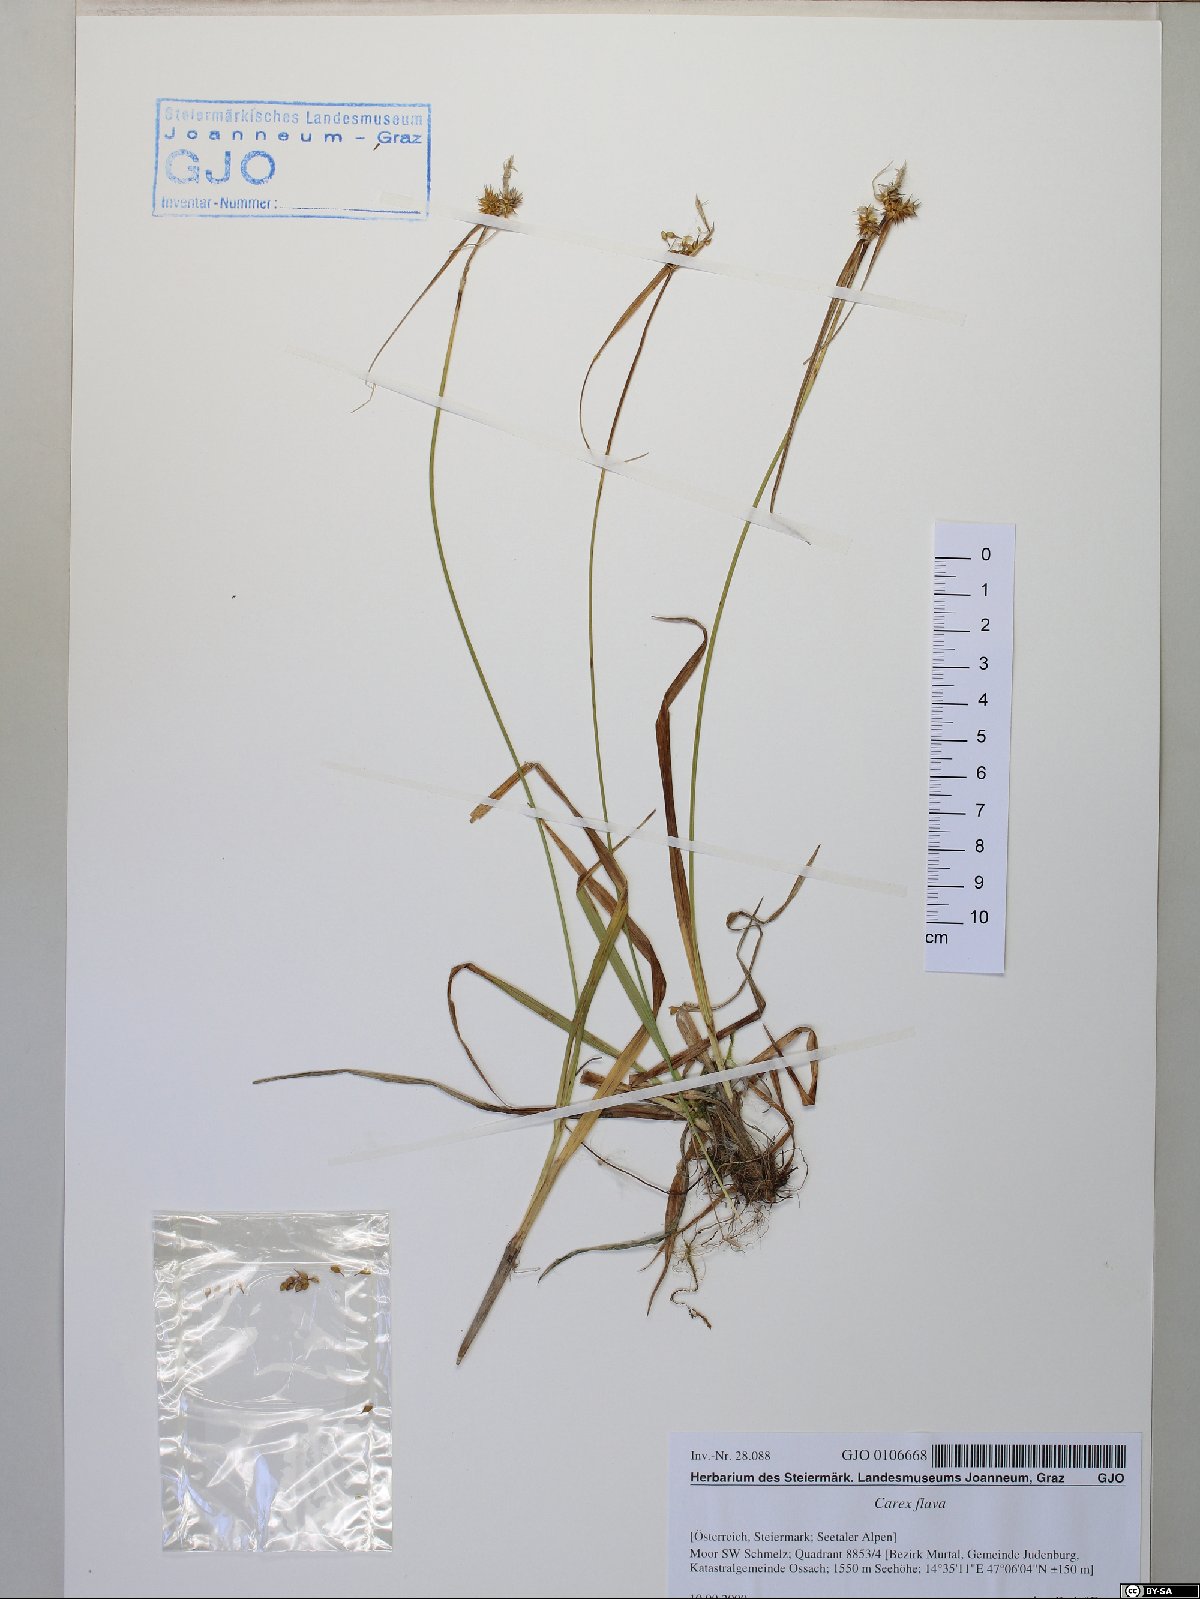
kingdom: Plantae
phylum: Tracheophyta
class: Liliopsida
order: Poales
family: Cyperaceae
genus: Carex
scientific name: Carex flava
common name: Large yellow-sedge
